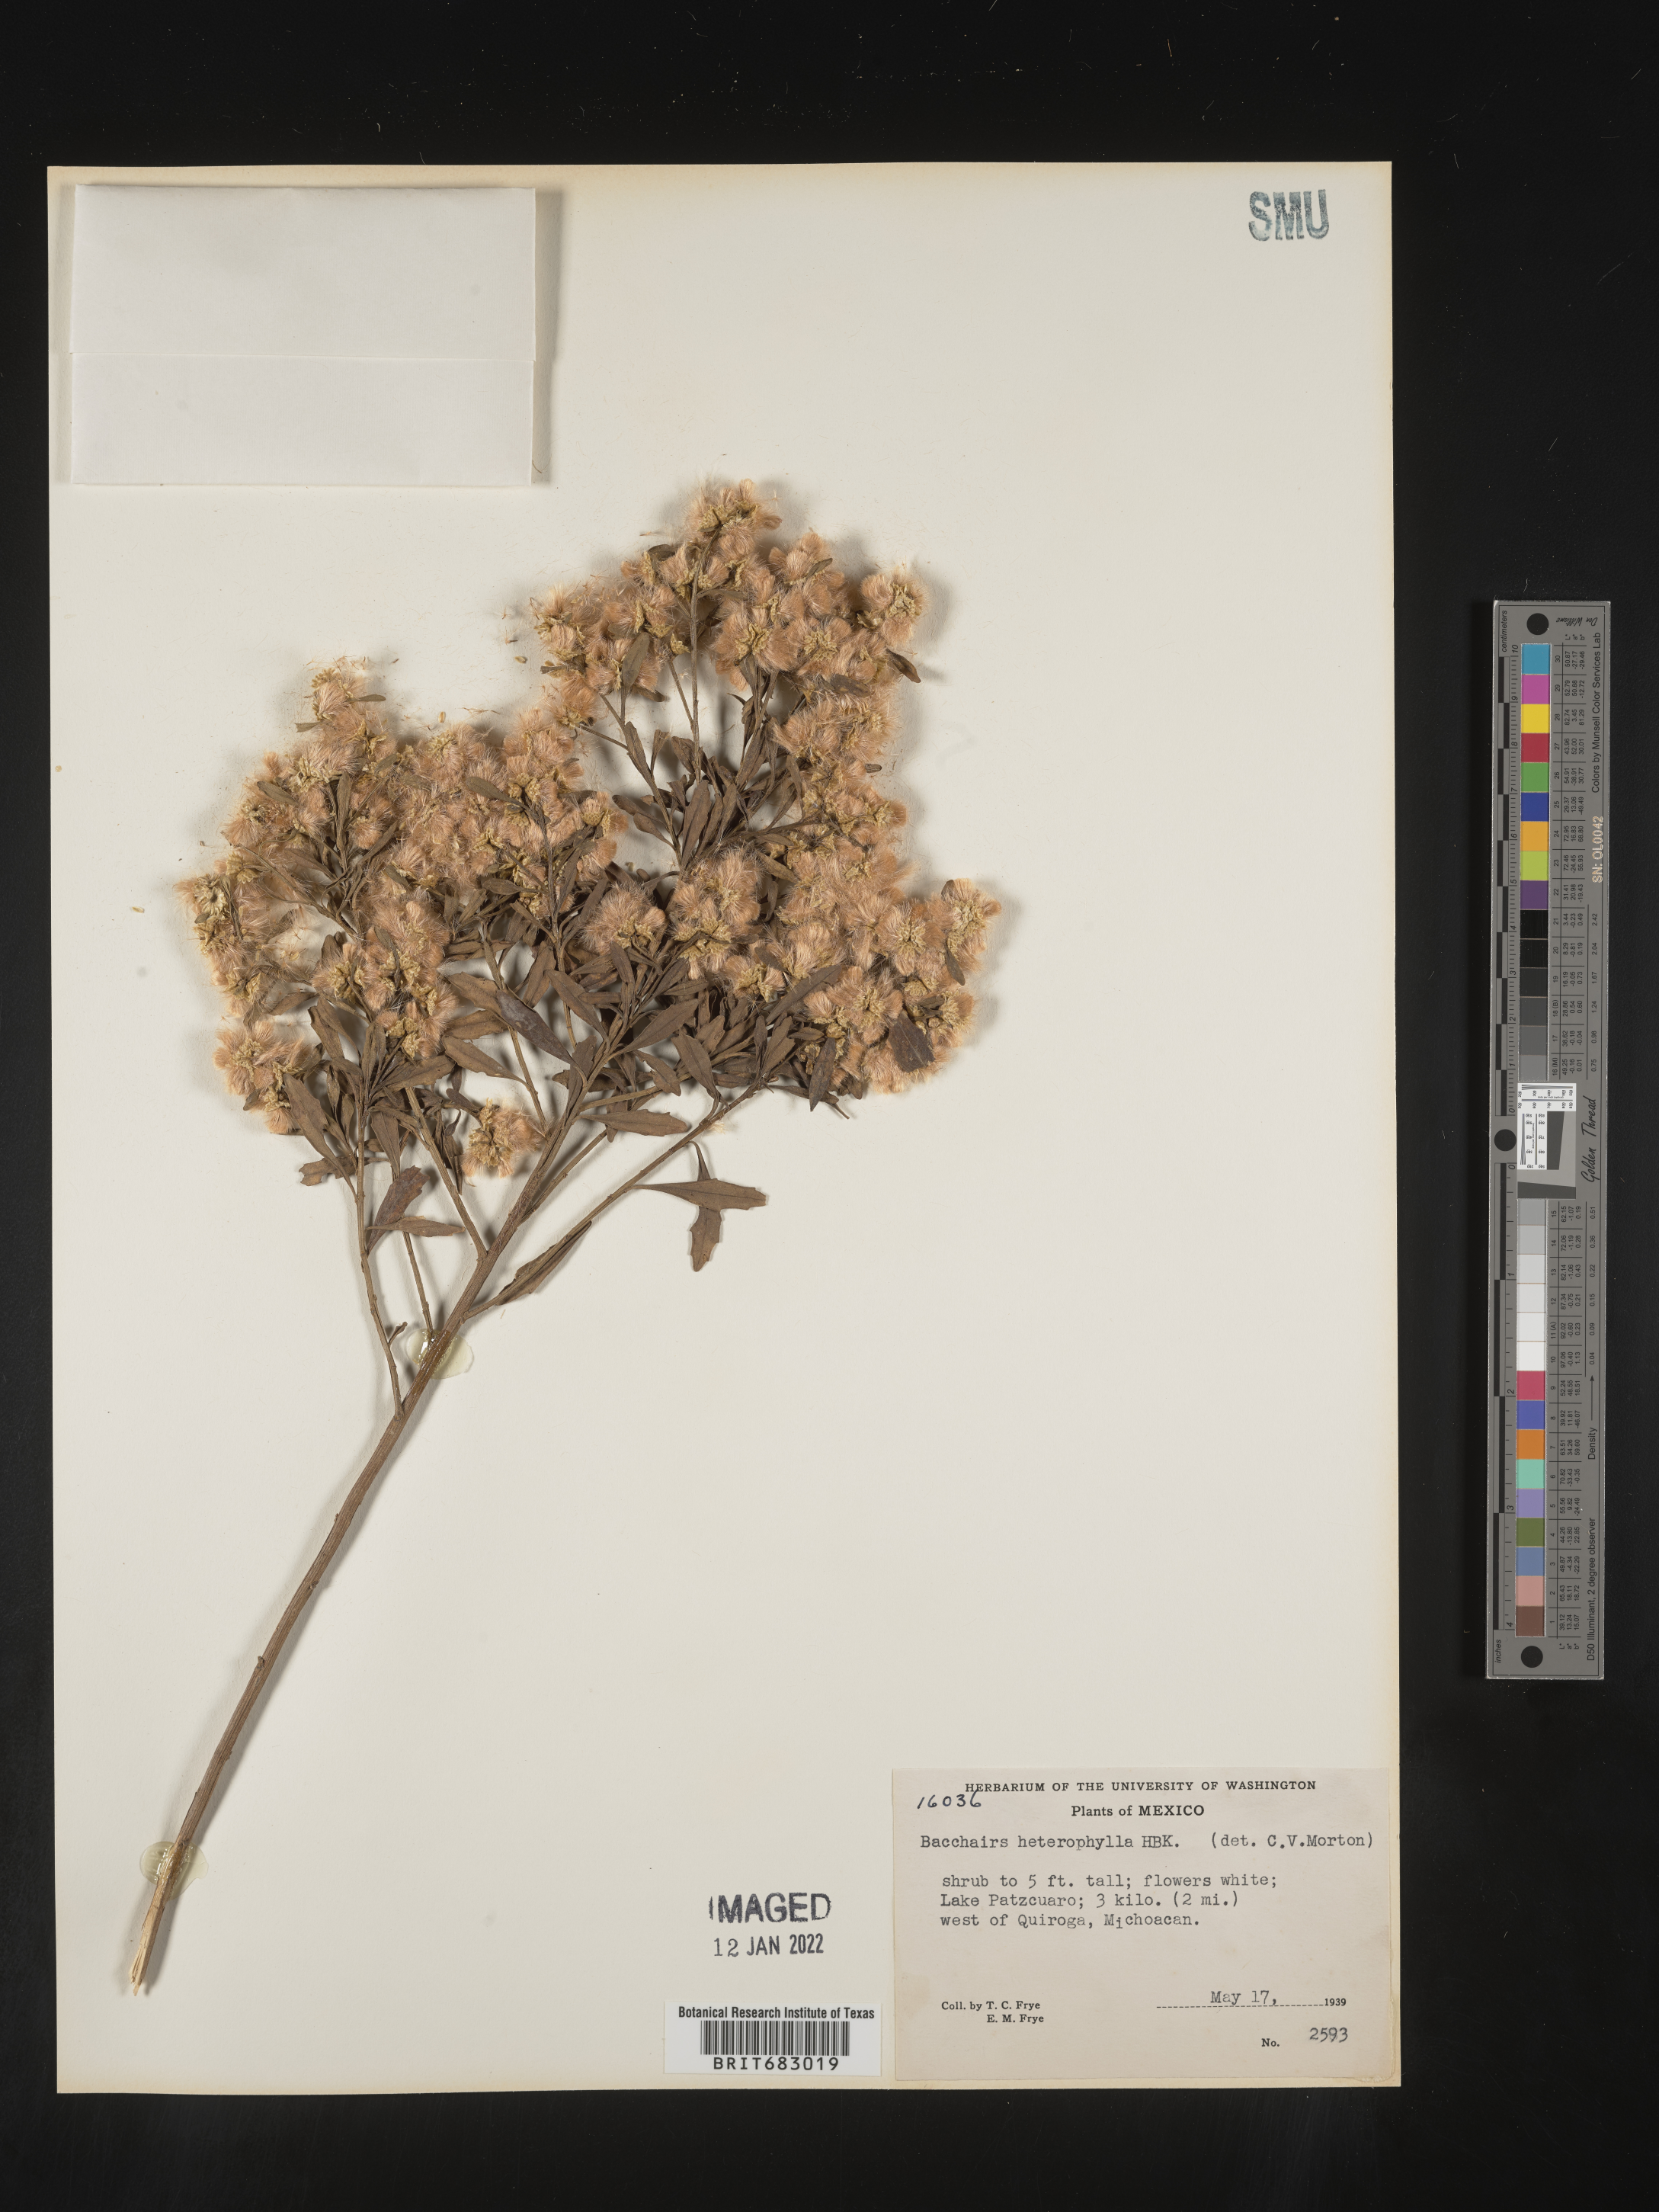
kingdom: Plantae
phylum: Tracheophyta
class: Magnoliopsida
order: Asterales
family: Asteraceae
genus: Baccharis
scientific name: Baccharis microdonta
